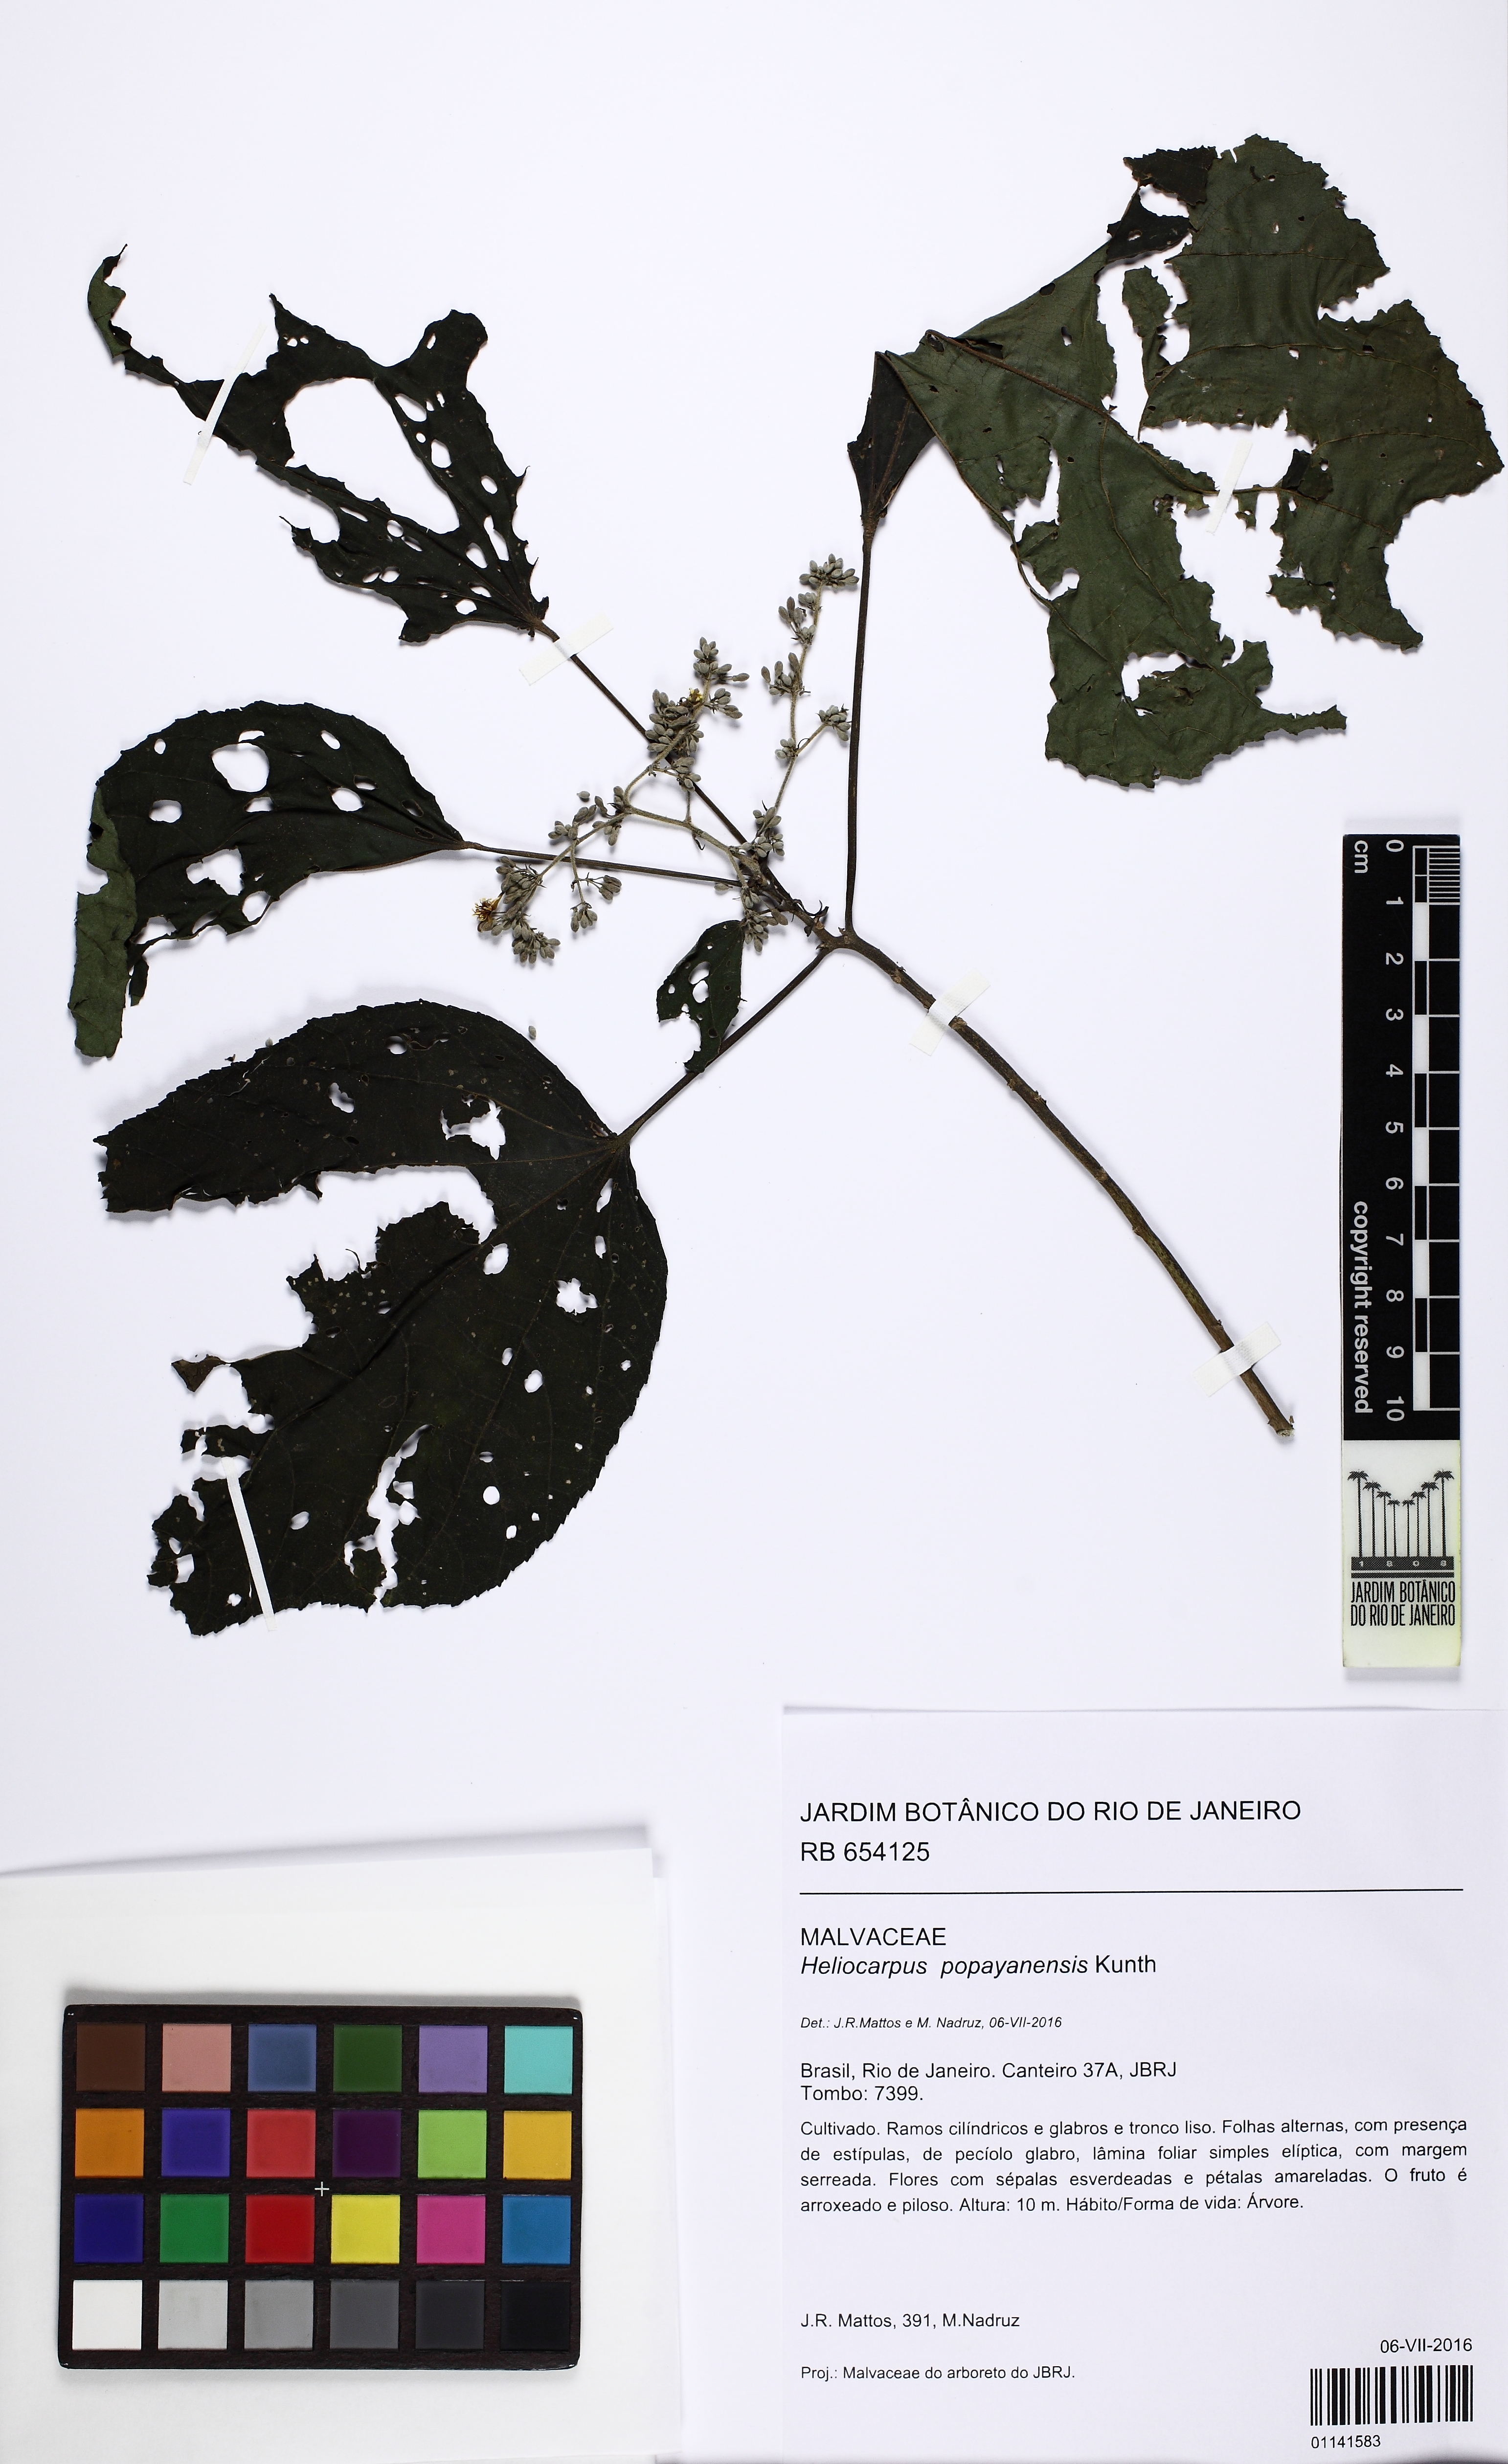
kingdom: Plantae
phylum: Tracheophyta
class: Magnoliopsida
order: Malvales
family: Malvaceae
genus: Heliocarpus
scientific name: Heliocarpus americanus
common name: White moho
